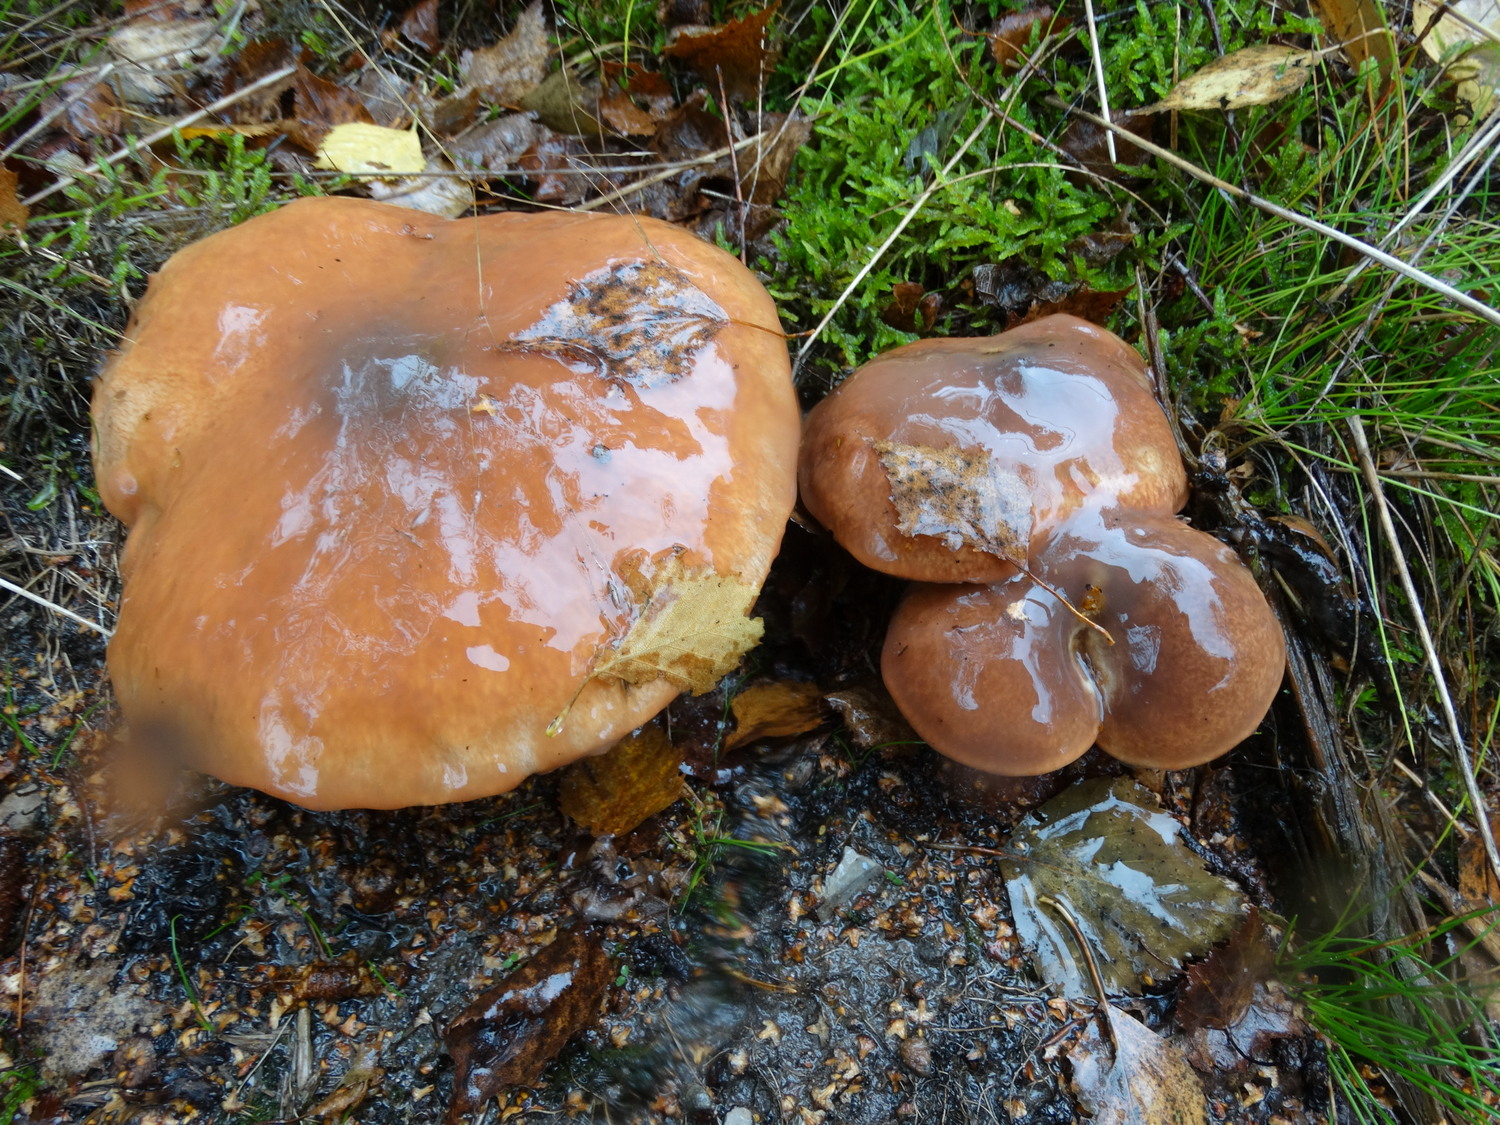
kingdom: Fungi
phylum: Basidiomycota
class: Agaricomycetes
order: Boletales
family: Suillaceae
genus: Suillus
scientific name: Suillus luteus
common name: brungul slimrørhat
